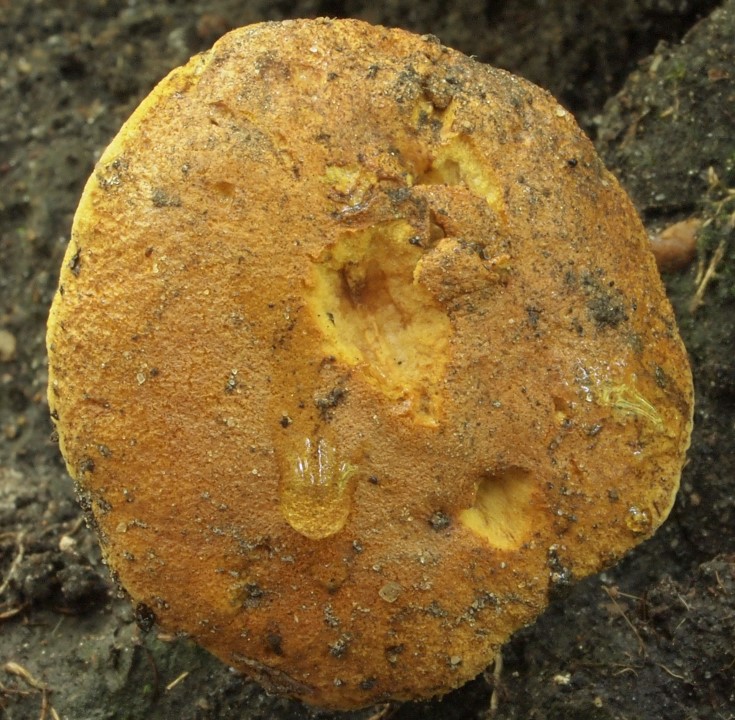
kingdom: Fungi
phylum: Basidiomycota
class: Agaricomycetes
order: Boletales
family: Boletaceae
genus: Buchwaldoboletus
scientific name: Buchwaldoboletus lignicola
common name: stødrørhat
